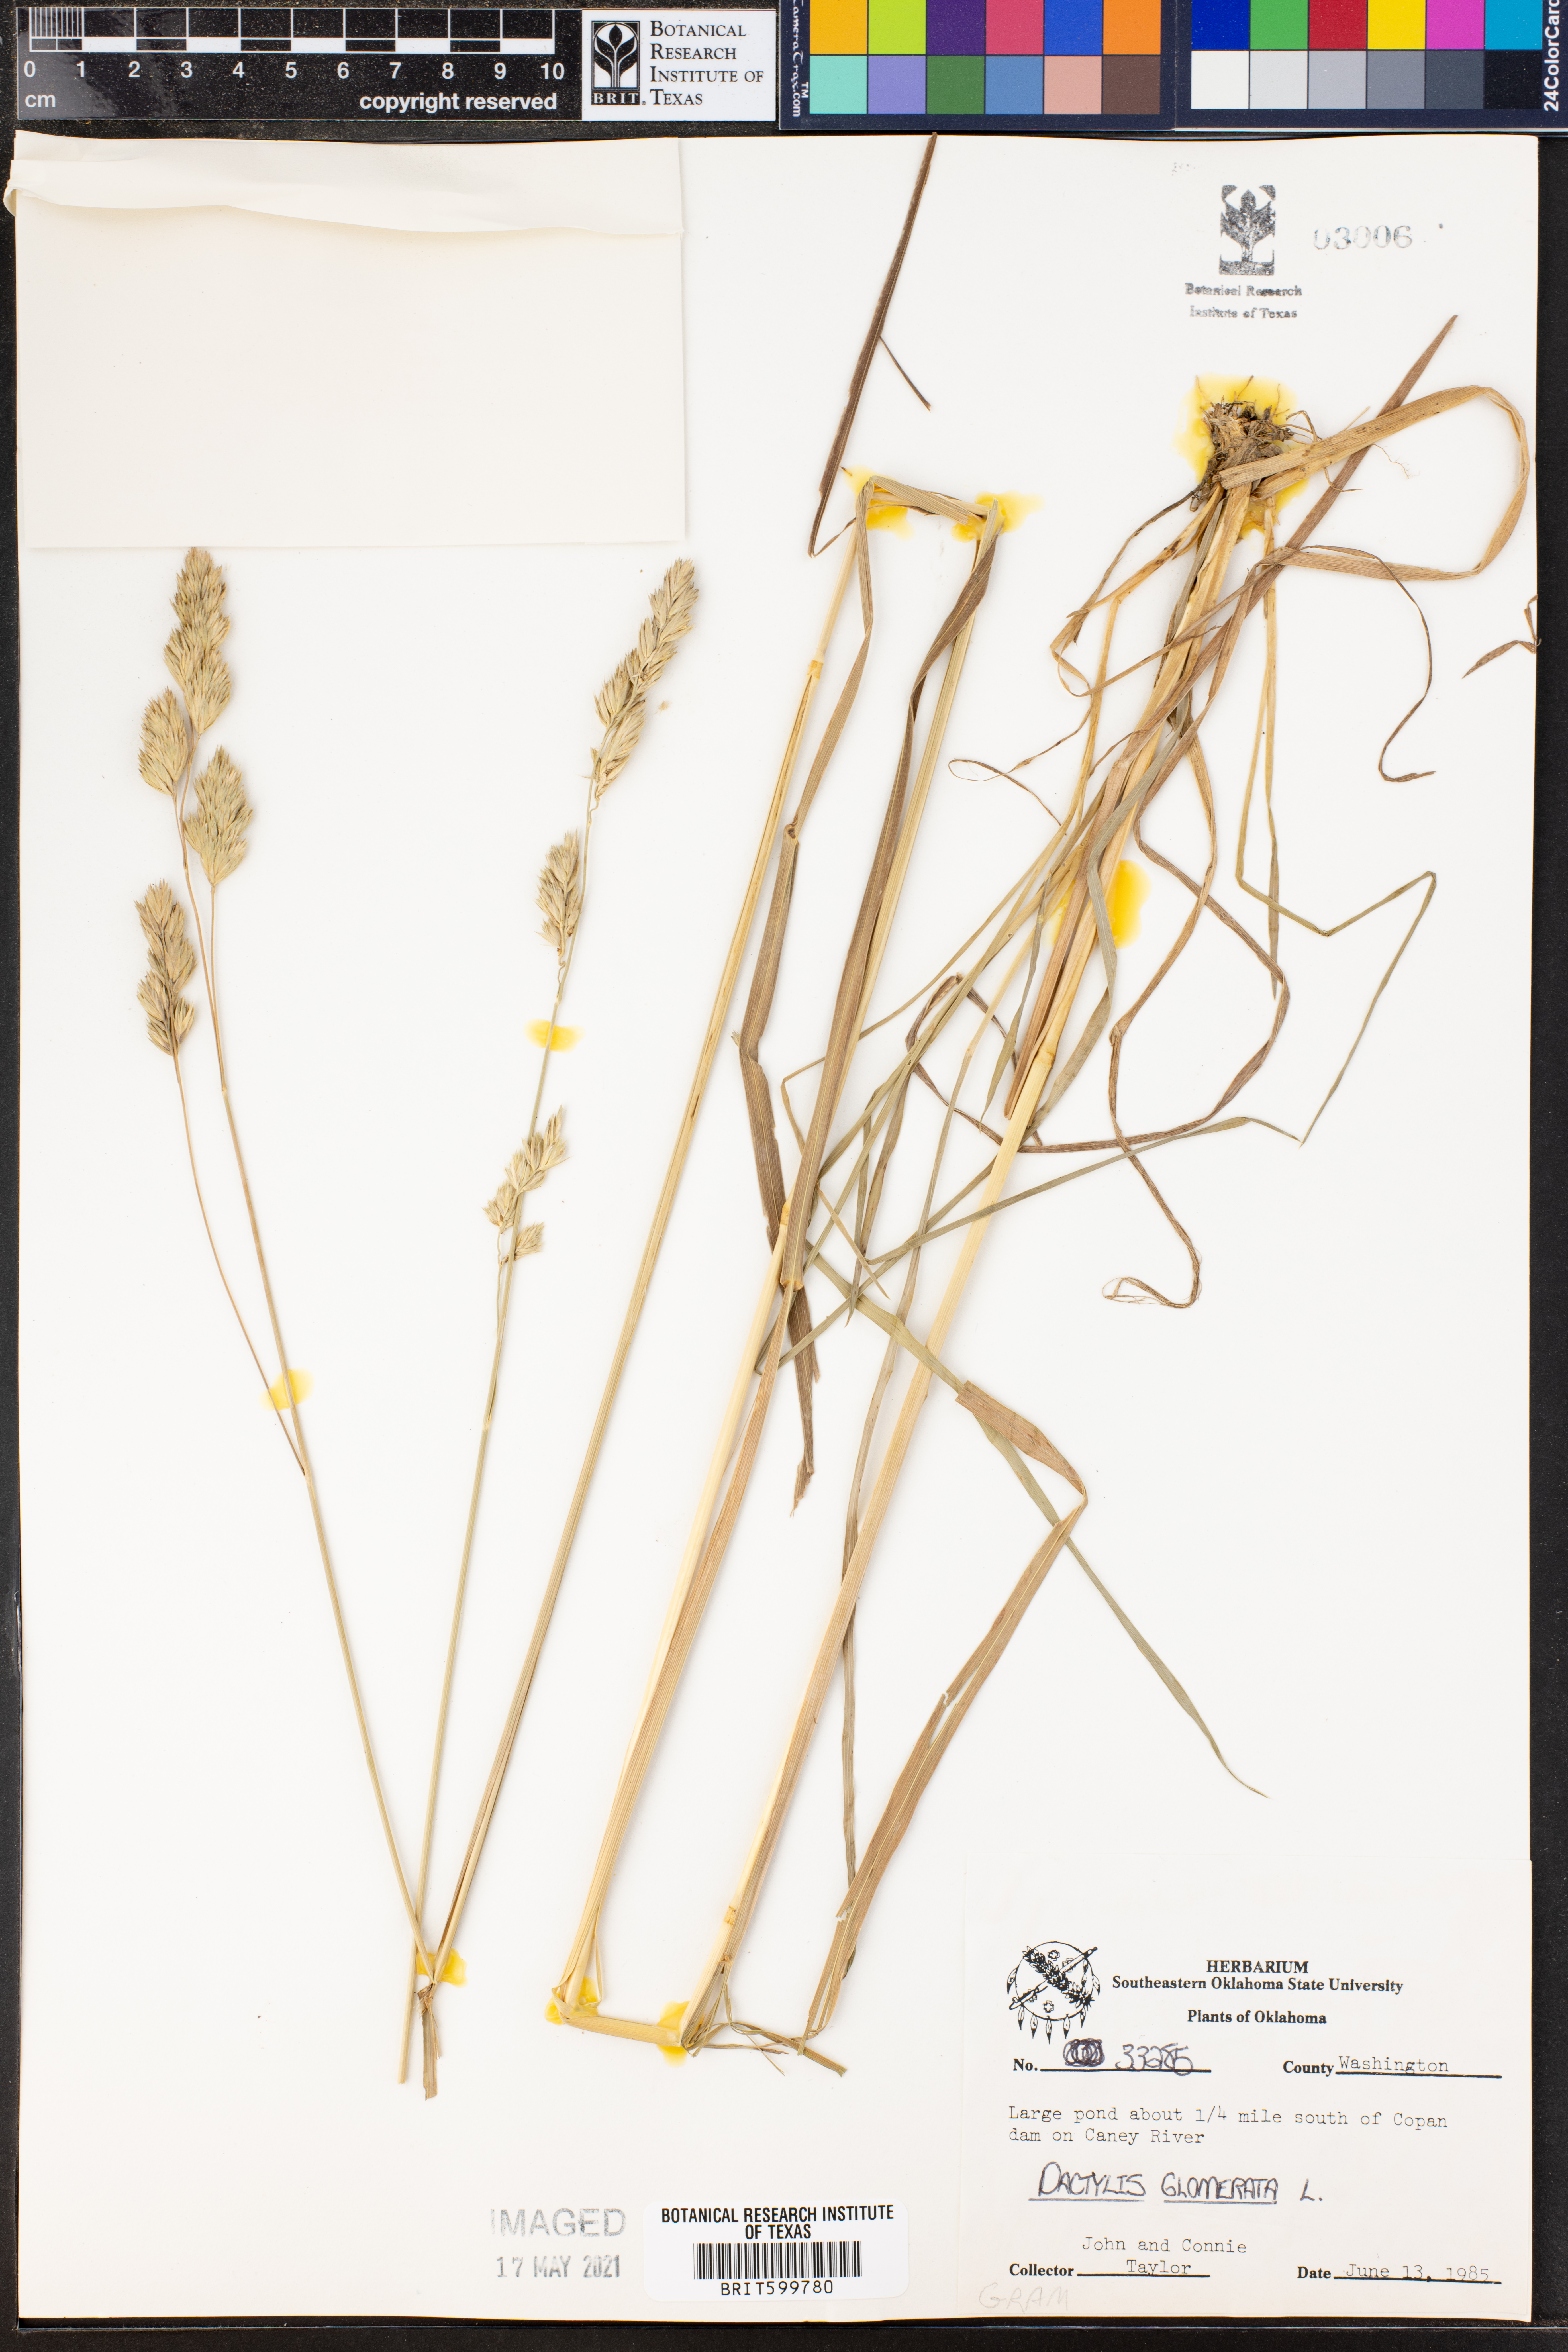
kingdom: Plantae
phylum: Tracheophyta
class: Liliopsida
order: Poales
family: Poaceae
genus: Dactylis
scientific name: Dactylis glomerata
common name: Orchardgrass
